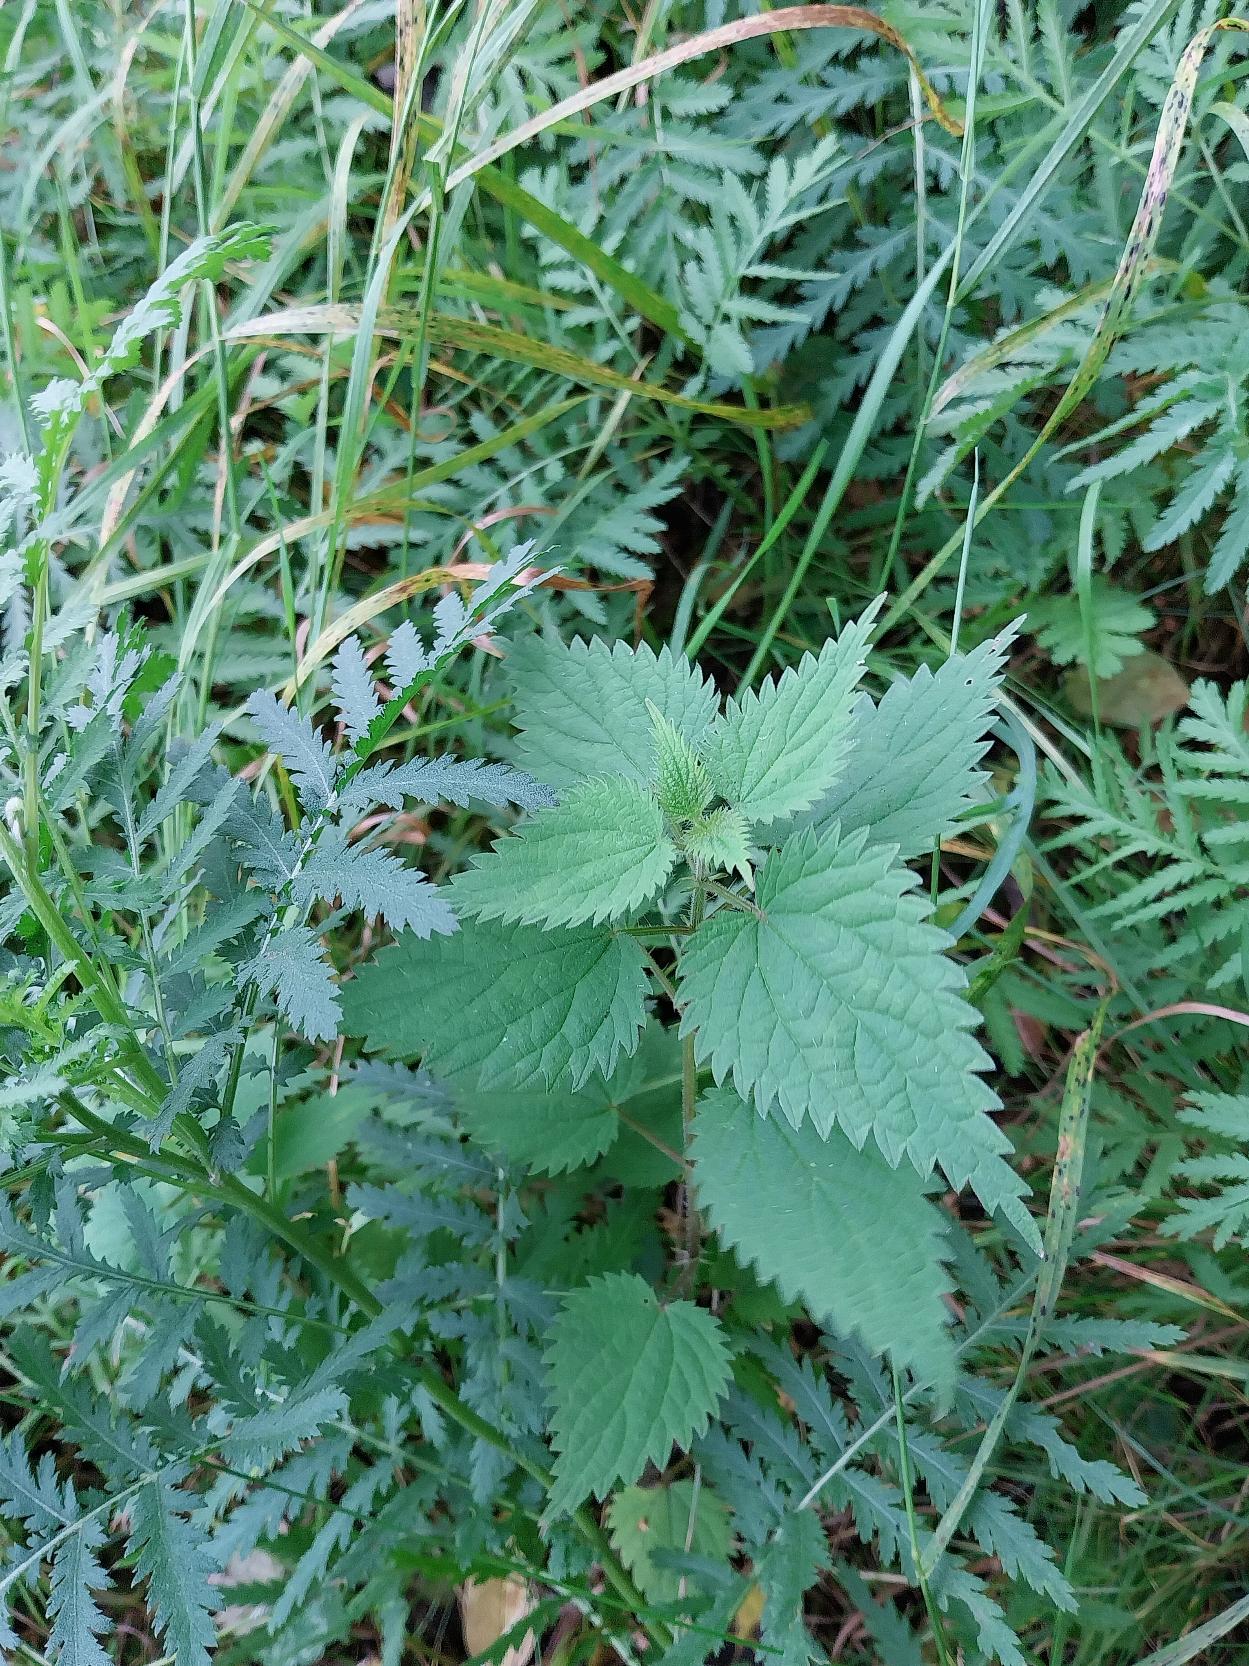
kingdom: Plantae
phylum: Tracheophyta
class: Magnoliopsida
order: Rosales
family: Urticaceae
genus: Urtica
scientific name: Urtica dioica
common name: Stor nælde
